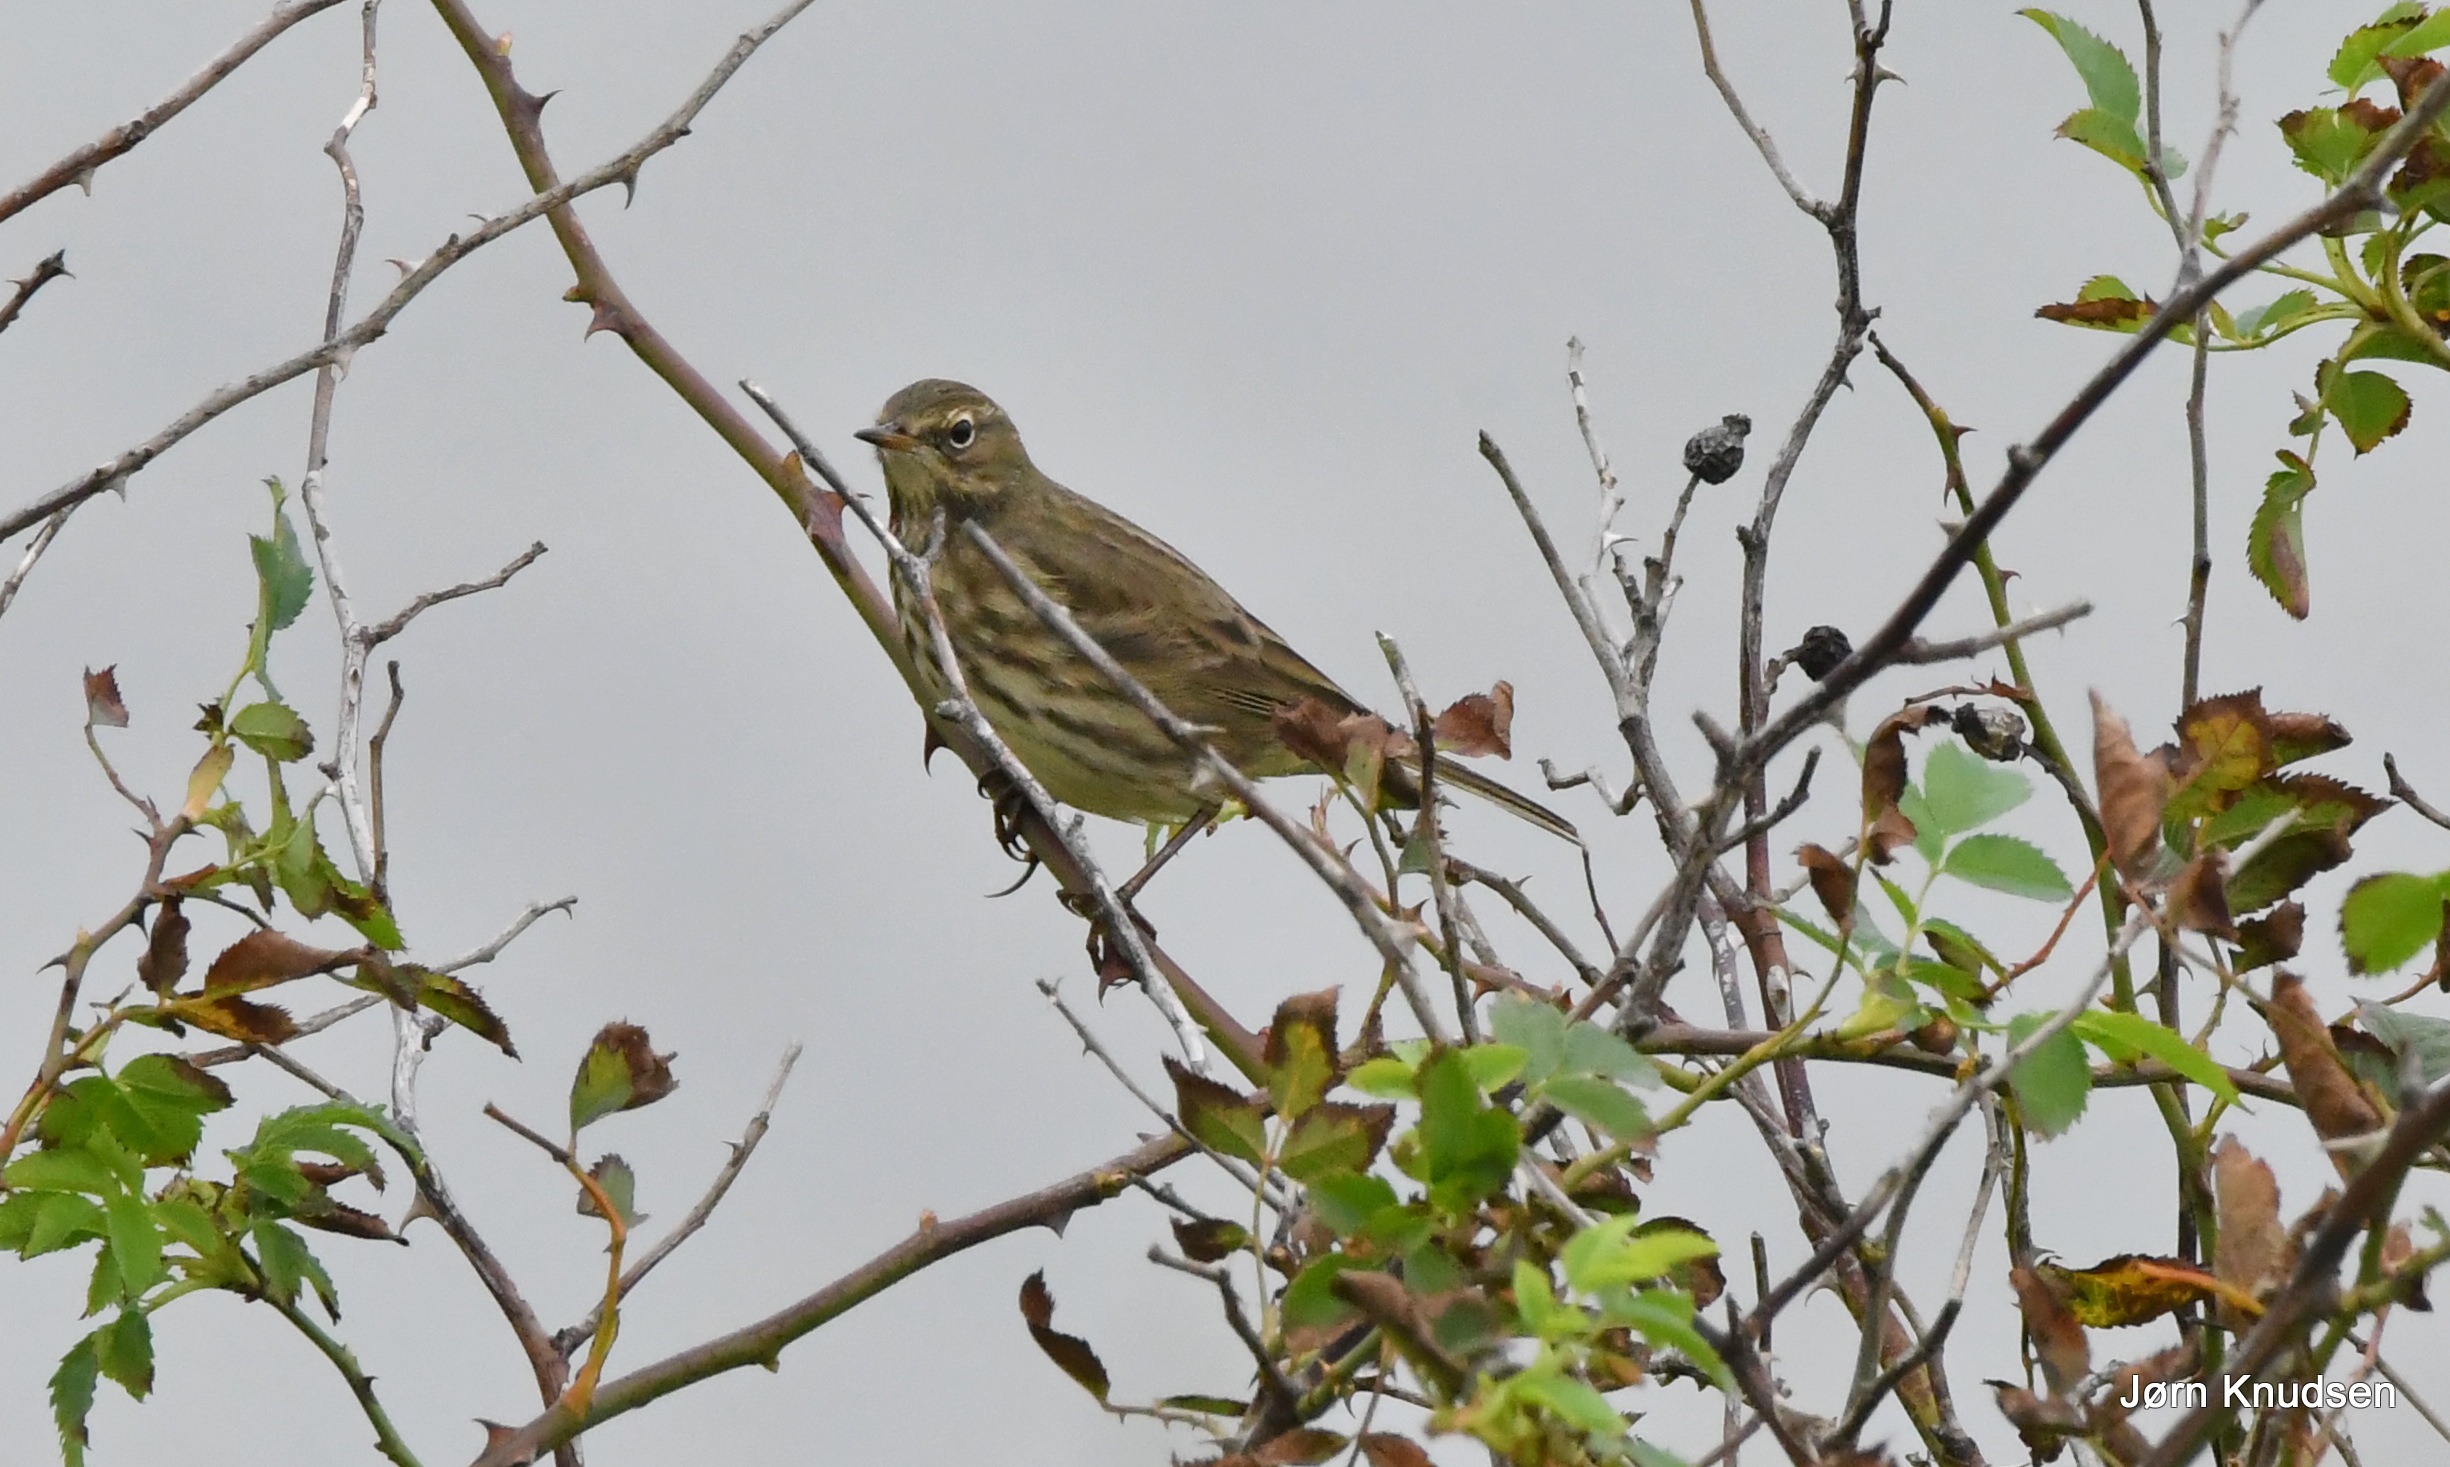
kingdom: Animalia
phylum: Chordata
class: Aves
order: Passeriformes
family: Motacillidae
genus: Anthus
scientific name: Anthus petrosus
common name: Skærpiber
